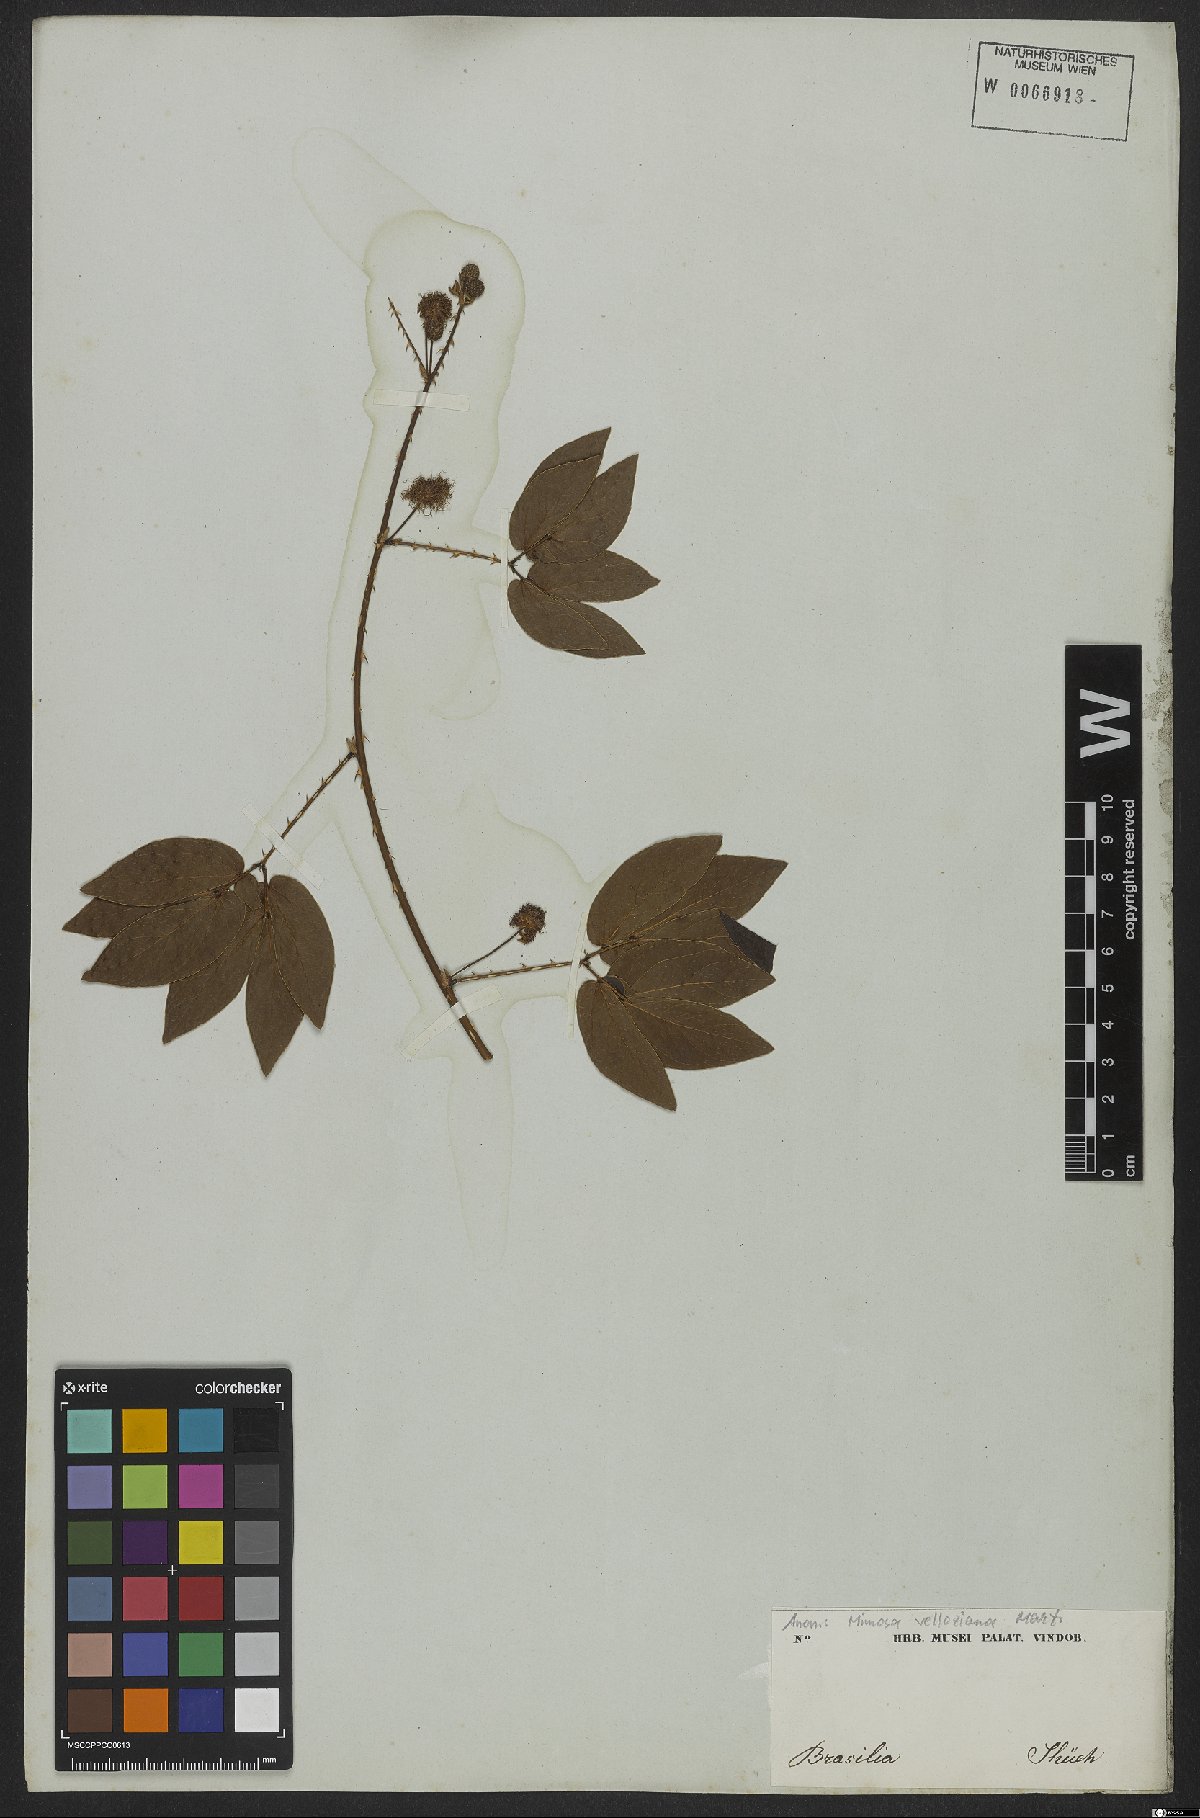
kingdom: Plantae
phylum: Tracheophyta
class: Magnoliopsida
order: Fabales
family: Fabaceae
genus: Mimosa
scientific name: Mimosa velloziana
